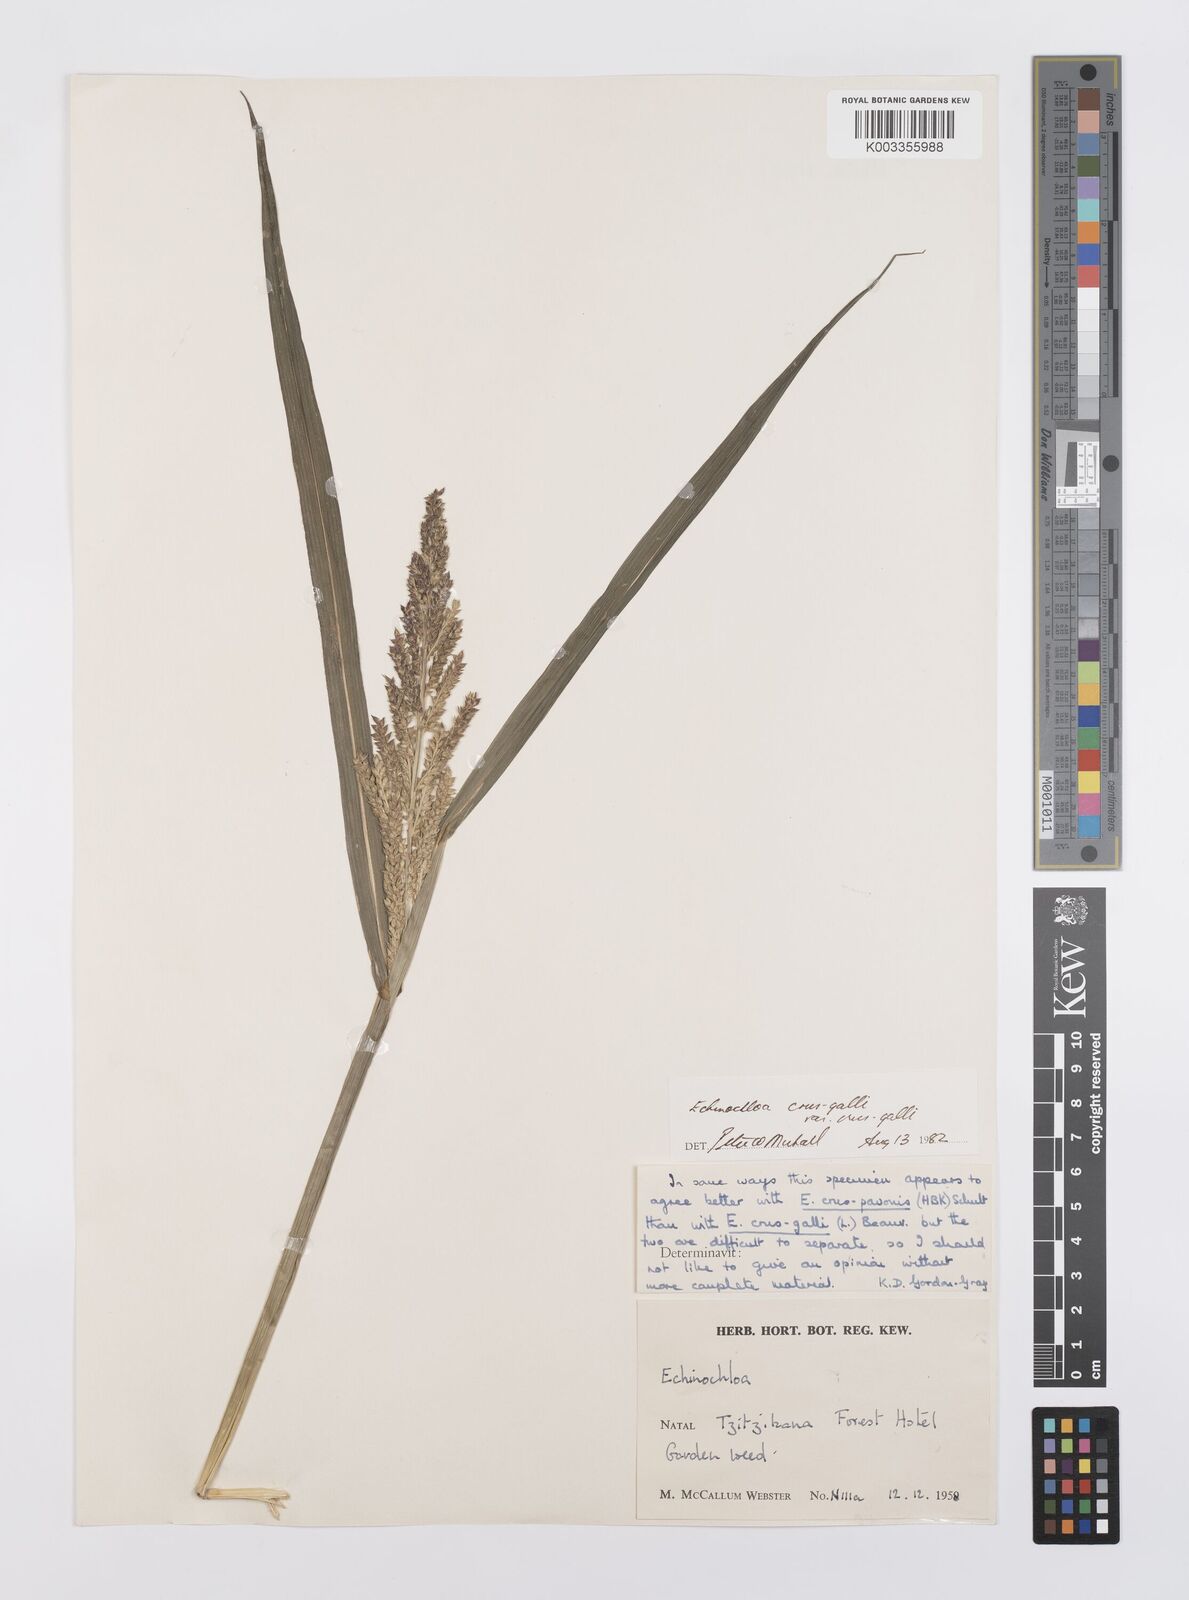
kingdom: Plantae
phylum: Tracheophyta
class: Liliopsida
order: Poales
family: Poaceae
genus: Echinochloa
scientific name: Echinochloa crus-galli
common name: Cockspur
